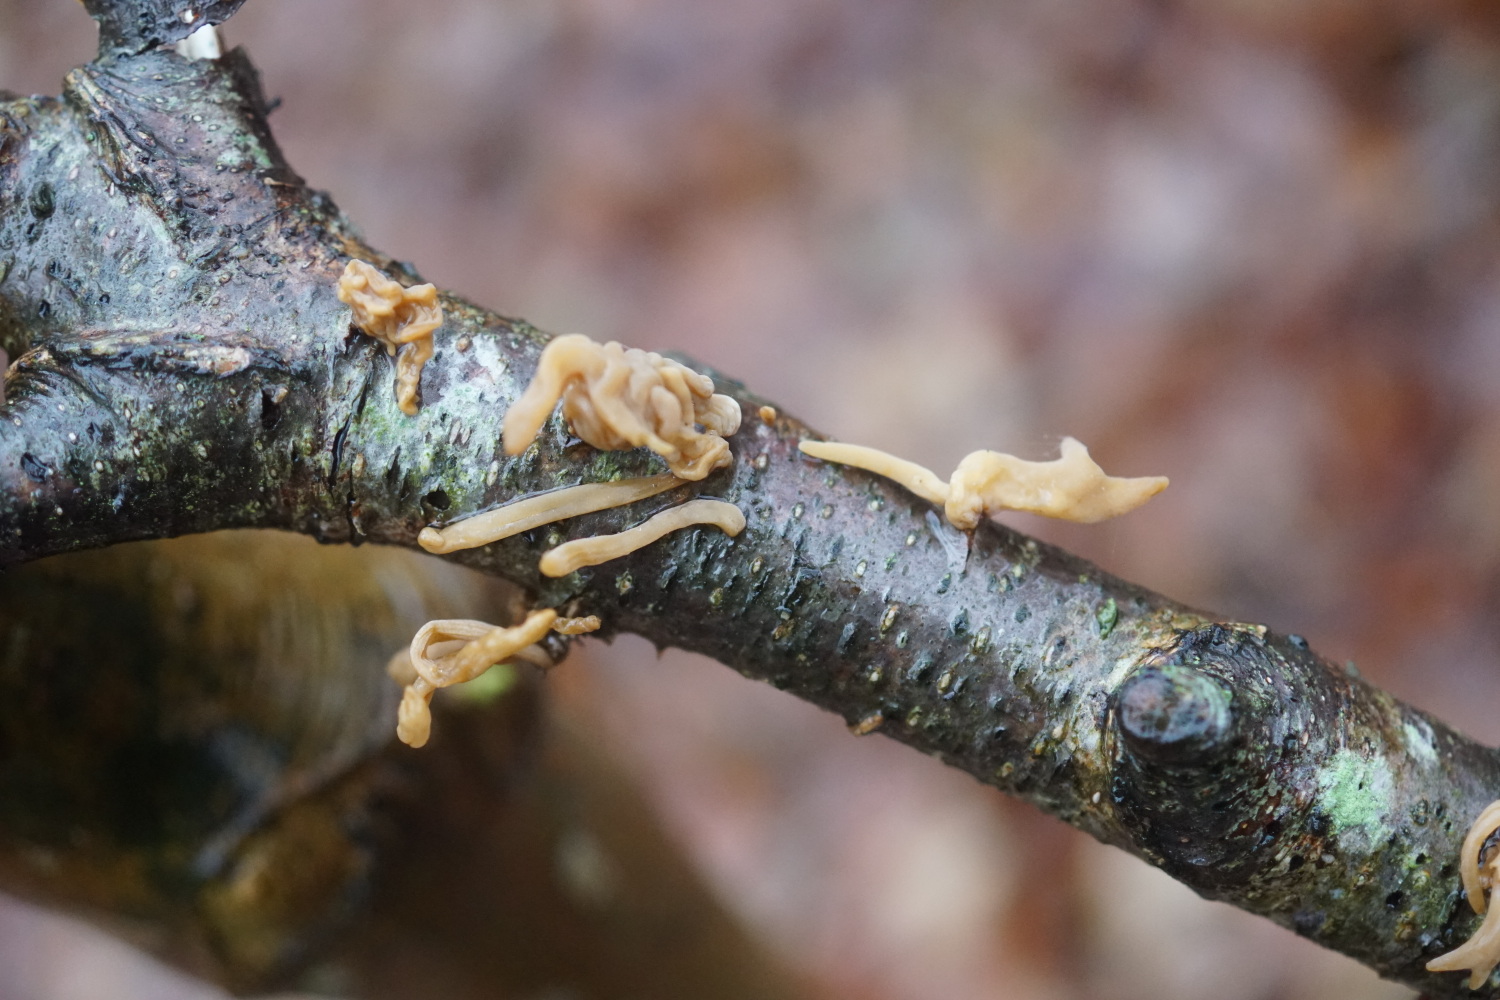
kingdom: Fungi
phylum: Basidiomycota
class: Agaricomycetes
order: Agaricales
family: Typhulaceae
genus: Typhula
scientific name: Typhula contorta
